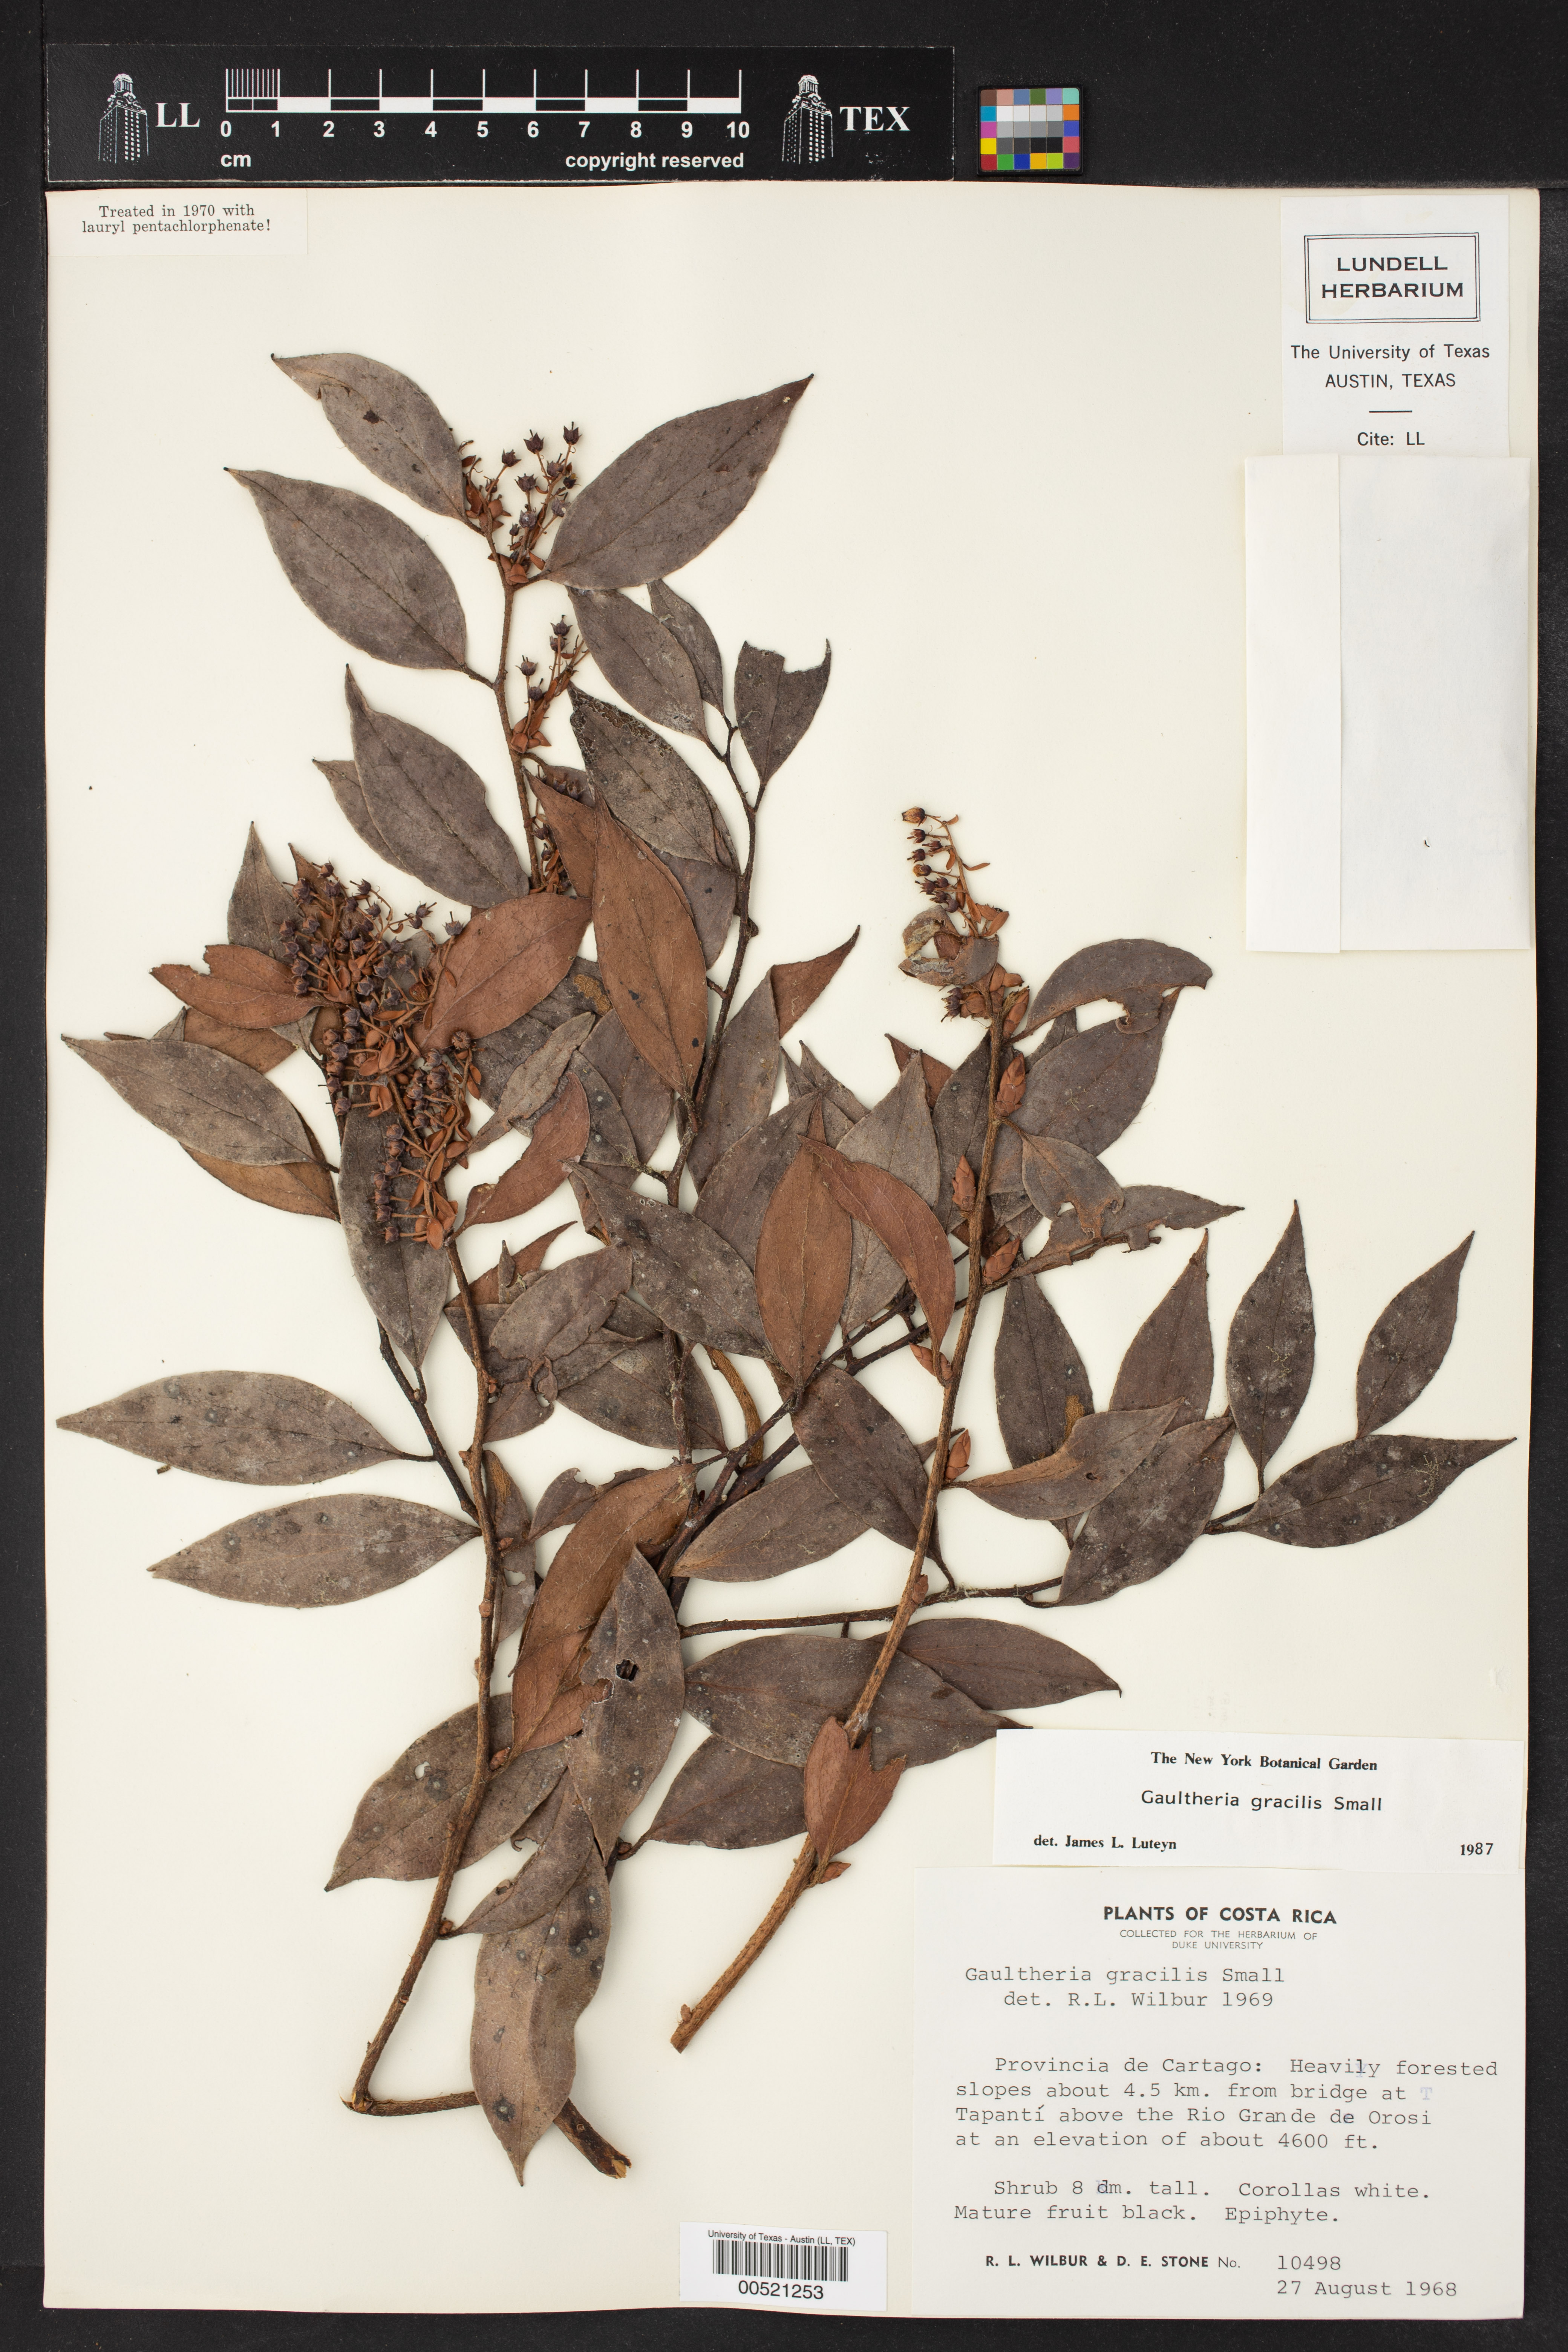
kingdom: Plantae
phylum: Tracheophyta
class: Magnoliopsida
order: Ericales
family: Ericaceae
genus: Gaultheria
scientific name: Gaultheria gracilis
